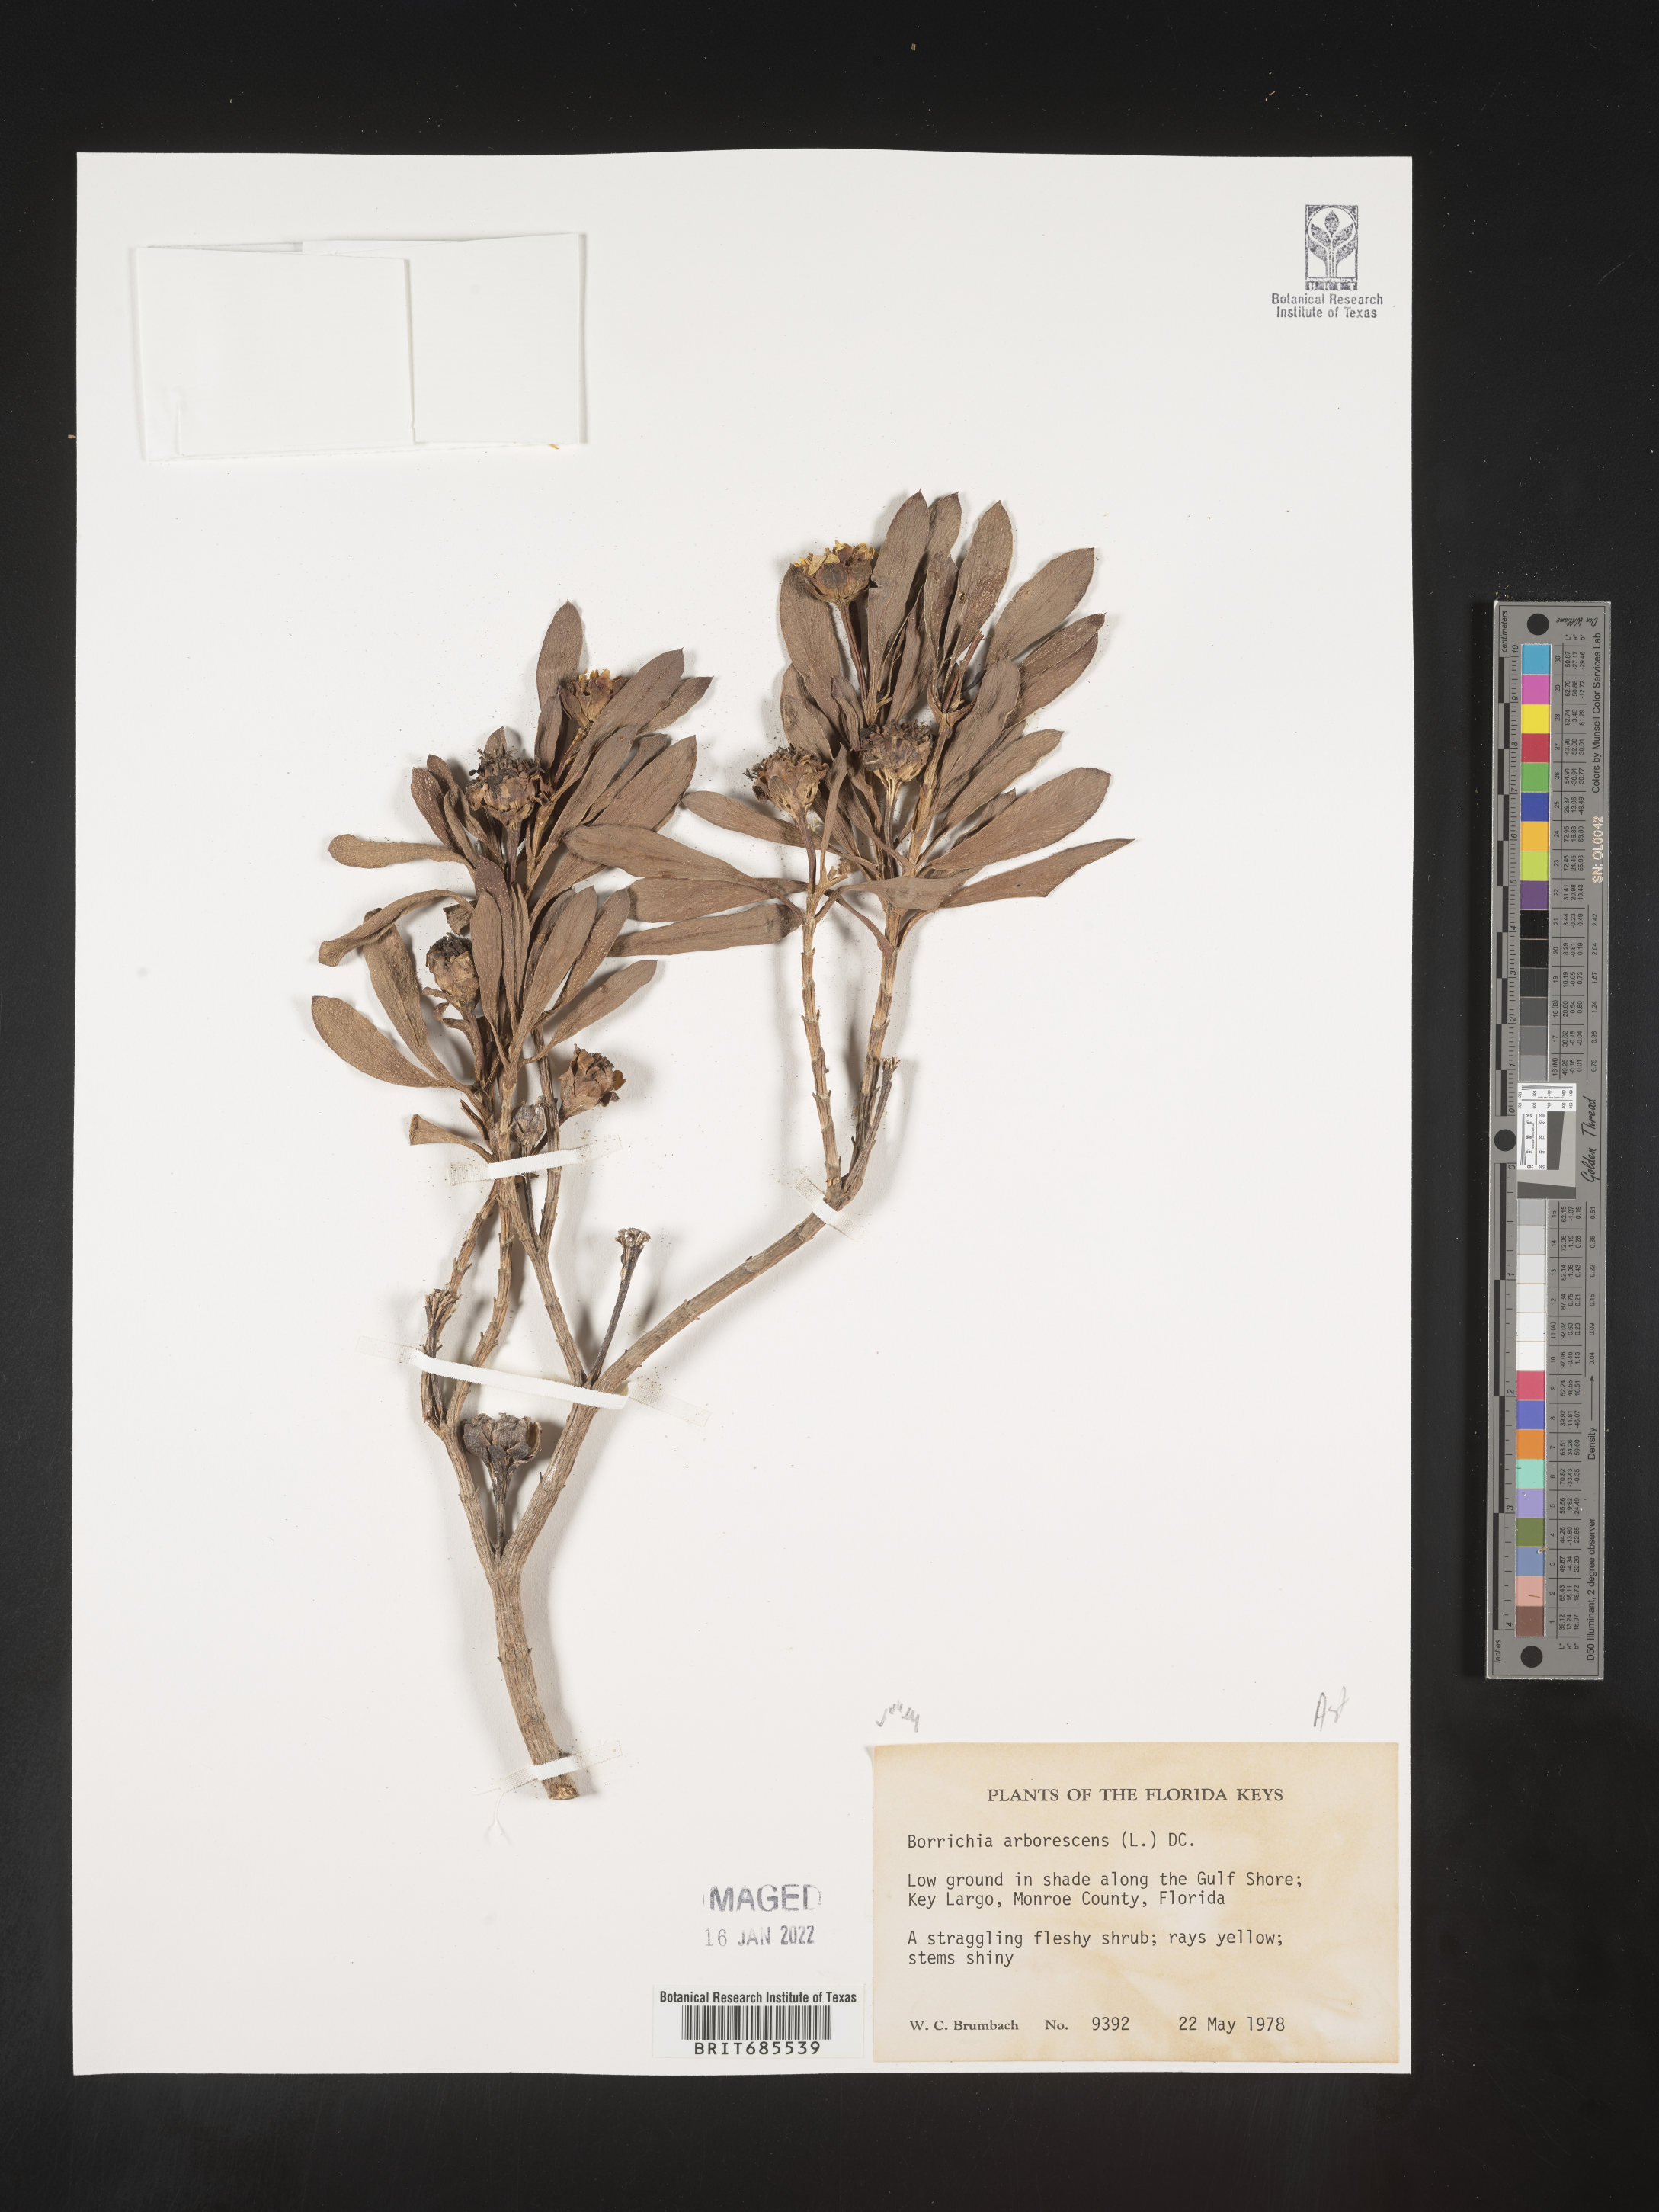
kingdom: Plantae
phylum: Tracheophyta
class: Magnoliopsida
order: Asterales
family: Asteraceae
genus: Borrichia
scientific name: Borrichia arborescens
